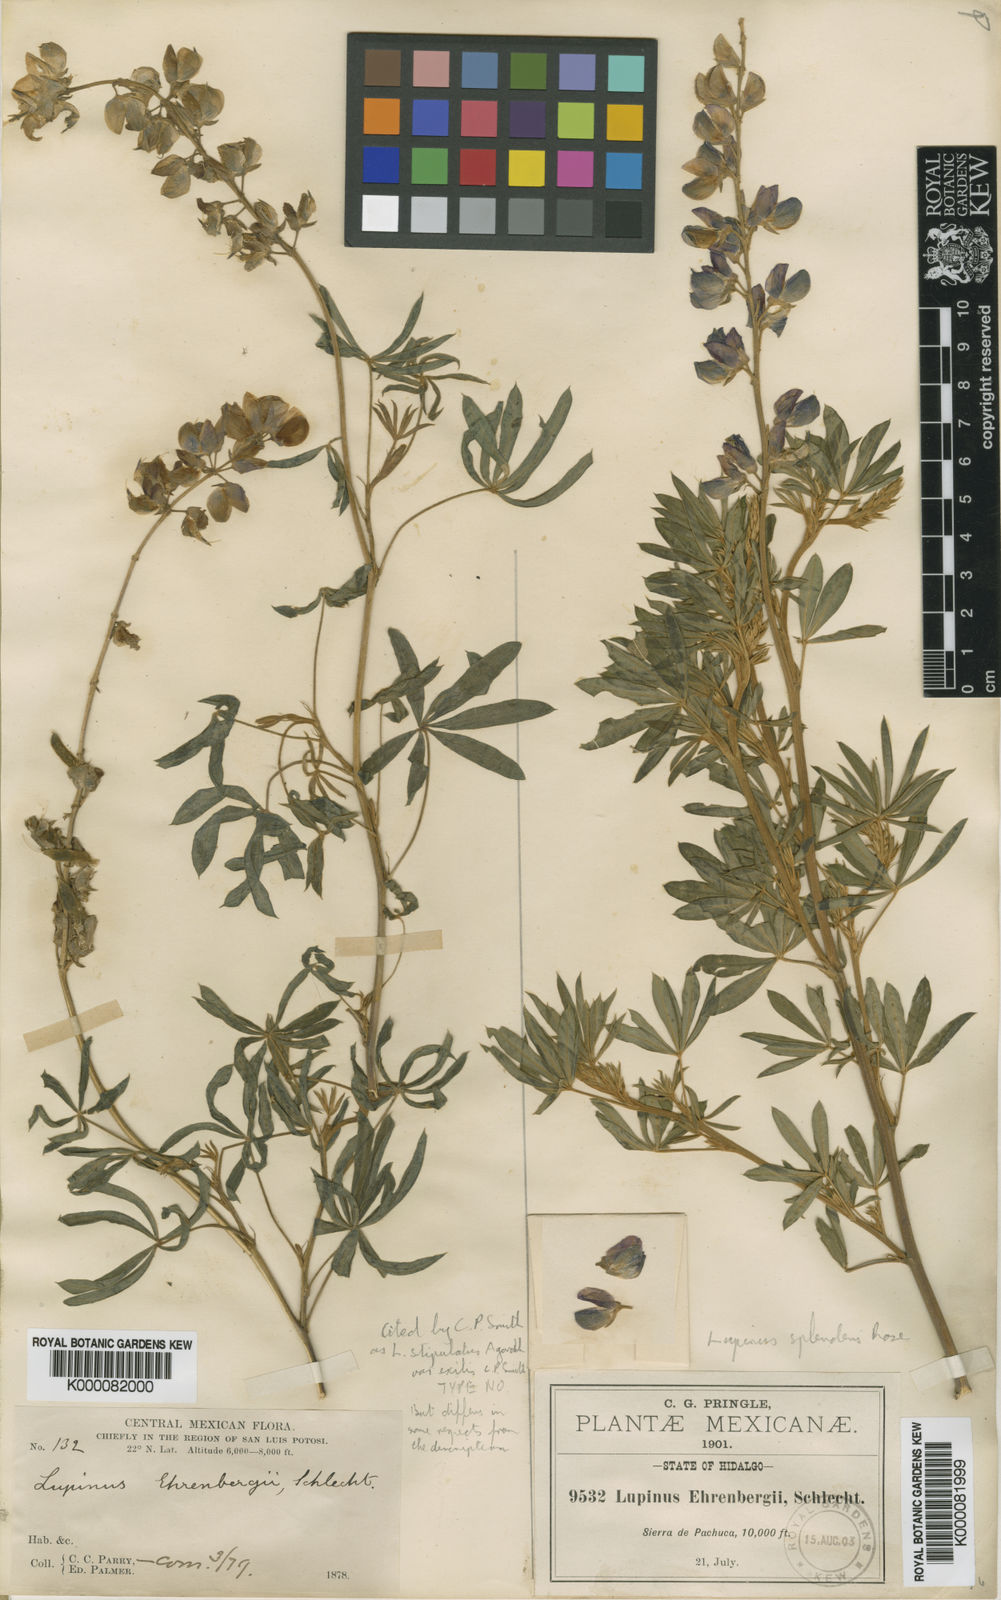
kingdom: Plantae
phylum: Tracheophyta
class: Magnoliopsida
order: Fabales
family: Fabaceae
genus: Lupinus
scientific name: Lupinus
